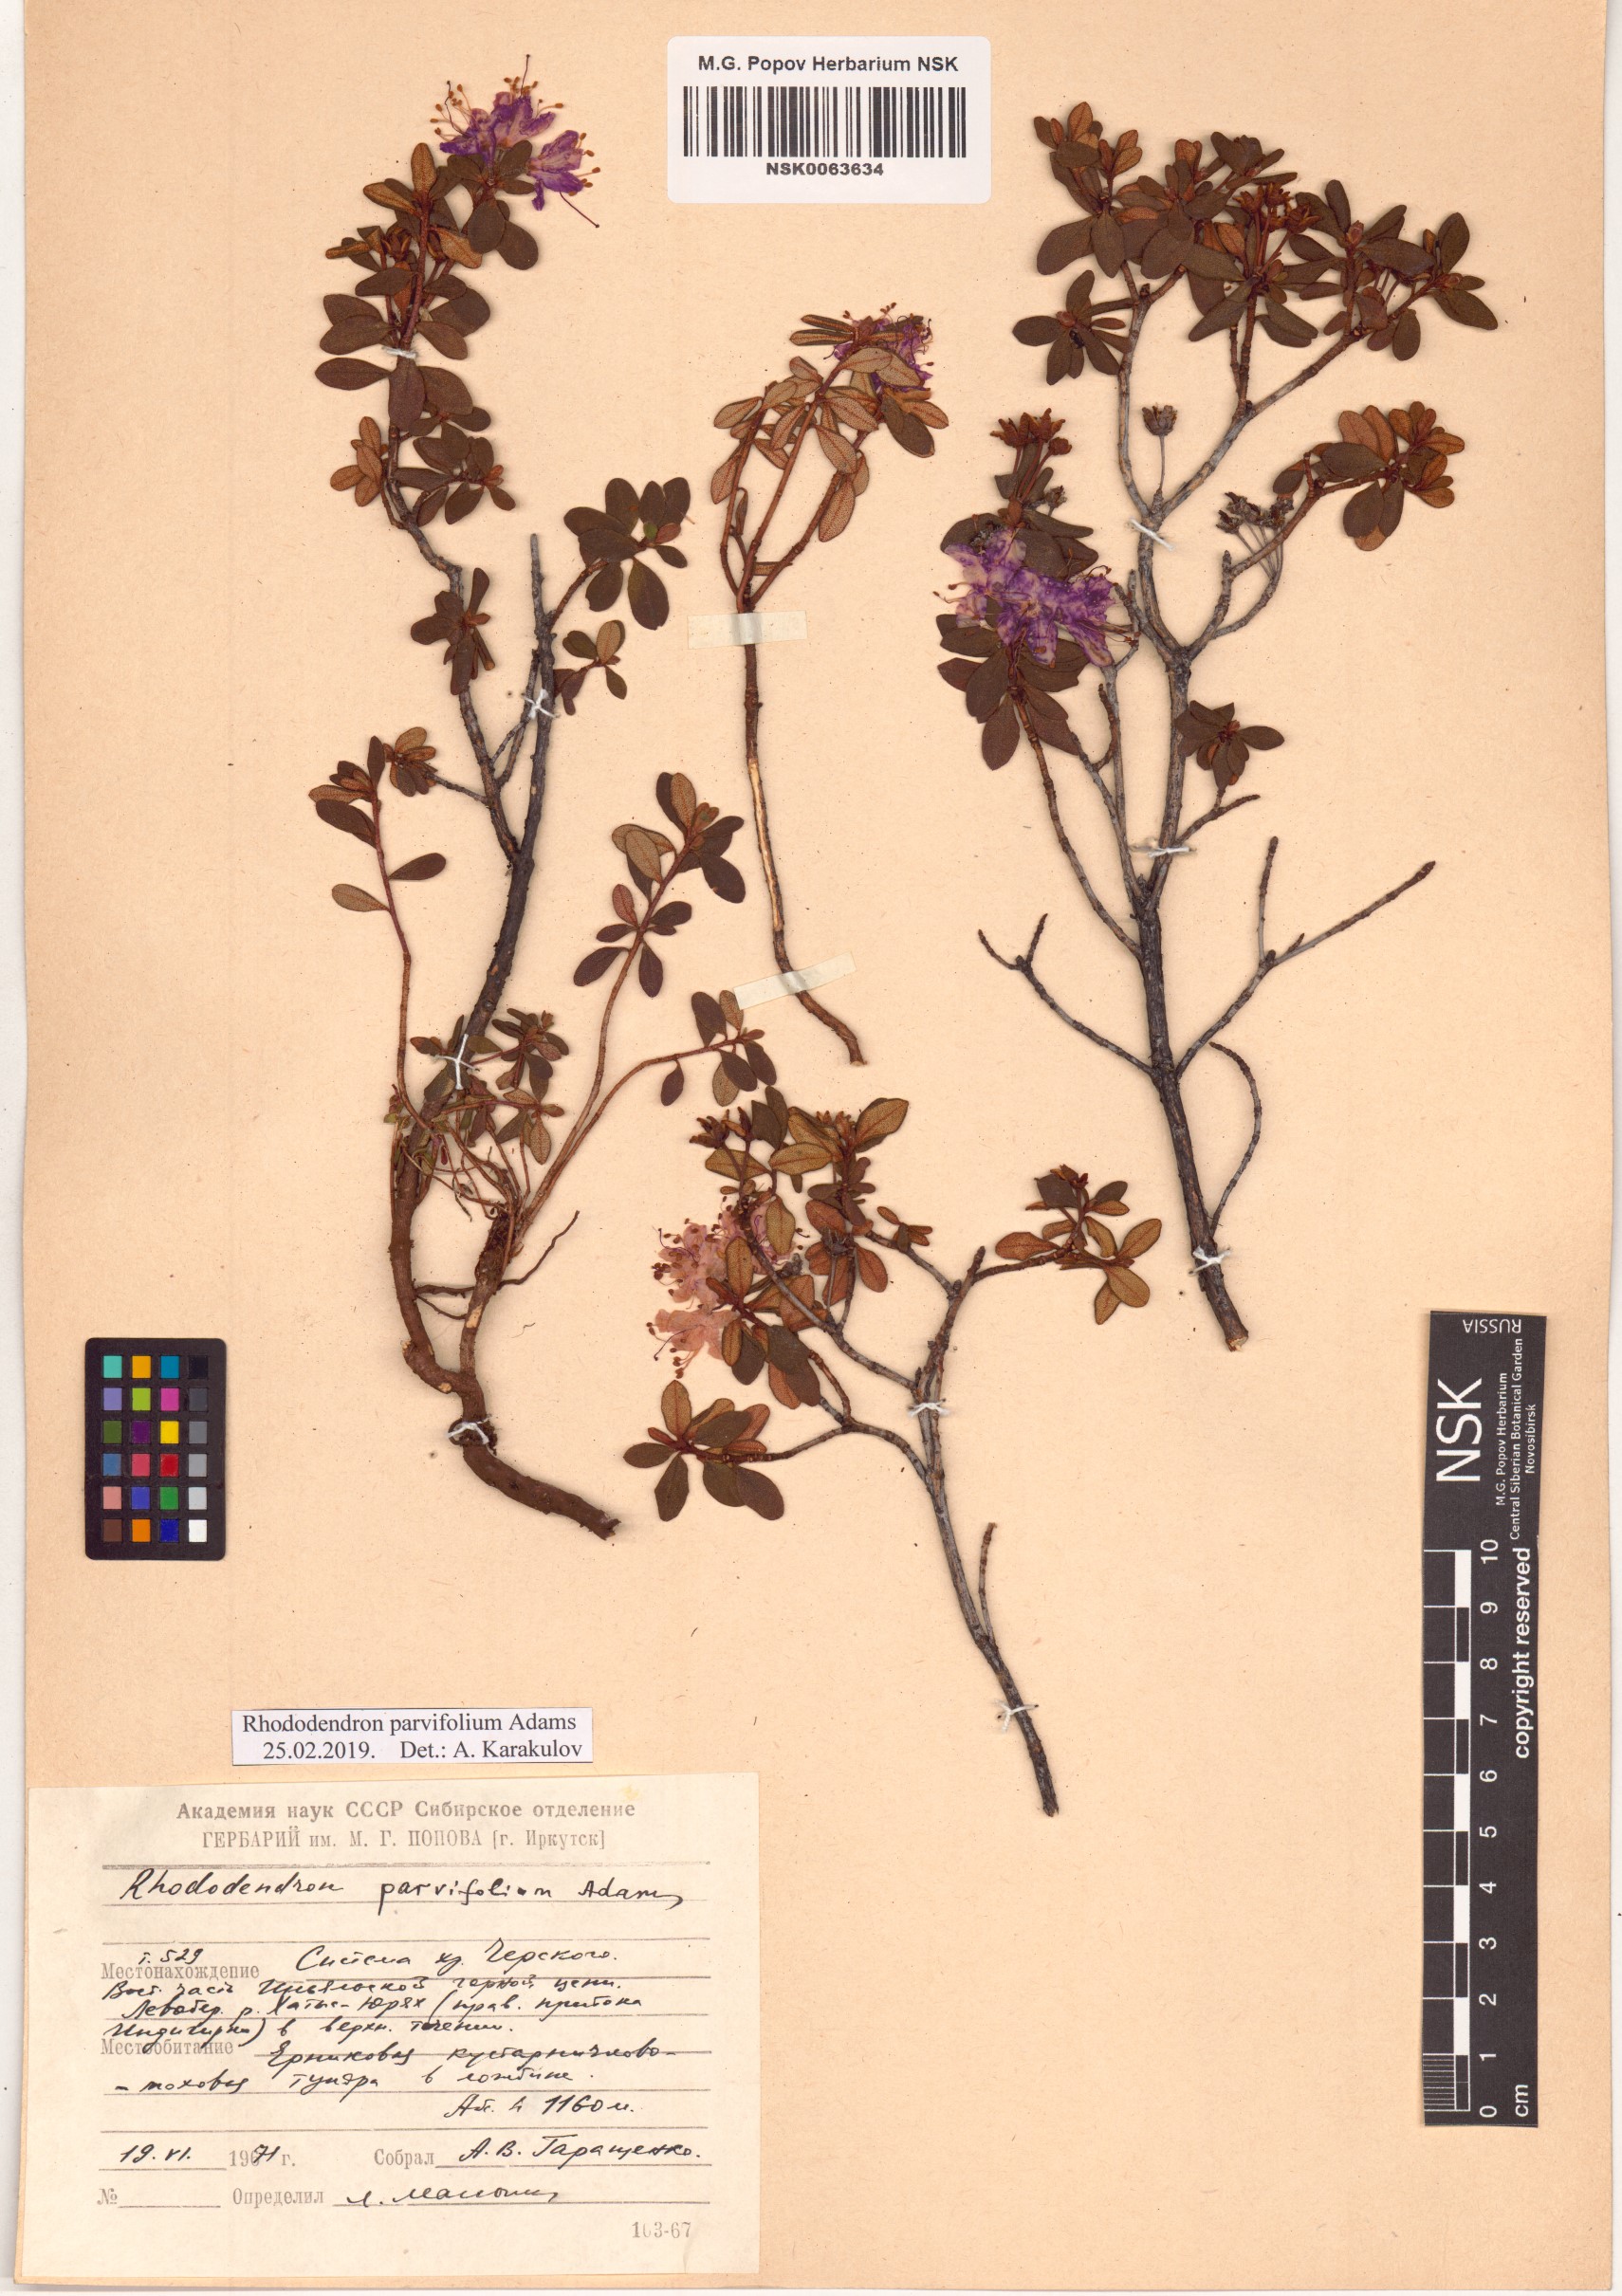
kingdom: Plantae
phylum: Tracheophyta
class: Magnoliopsida
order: Ericales
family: Ericaceae
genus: Rhododendron
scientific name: Rhododendron parvifolium
